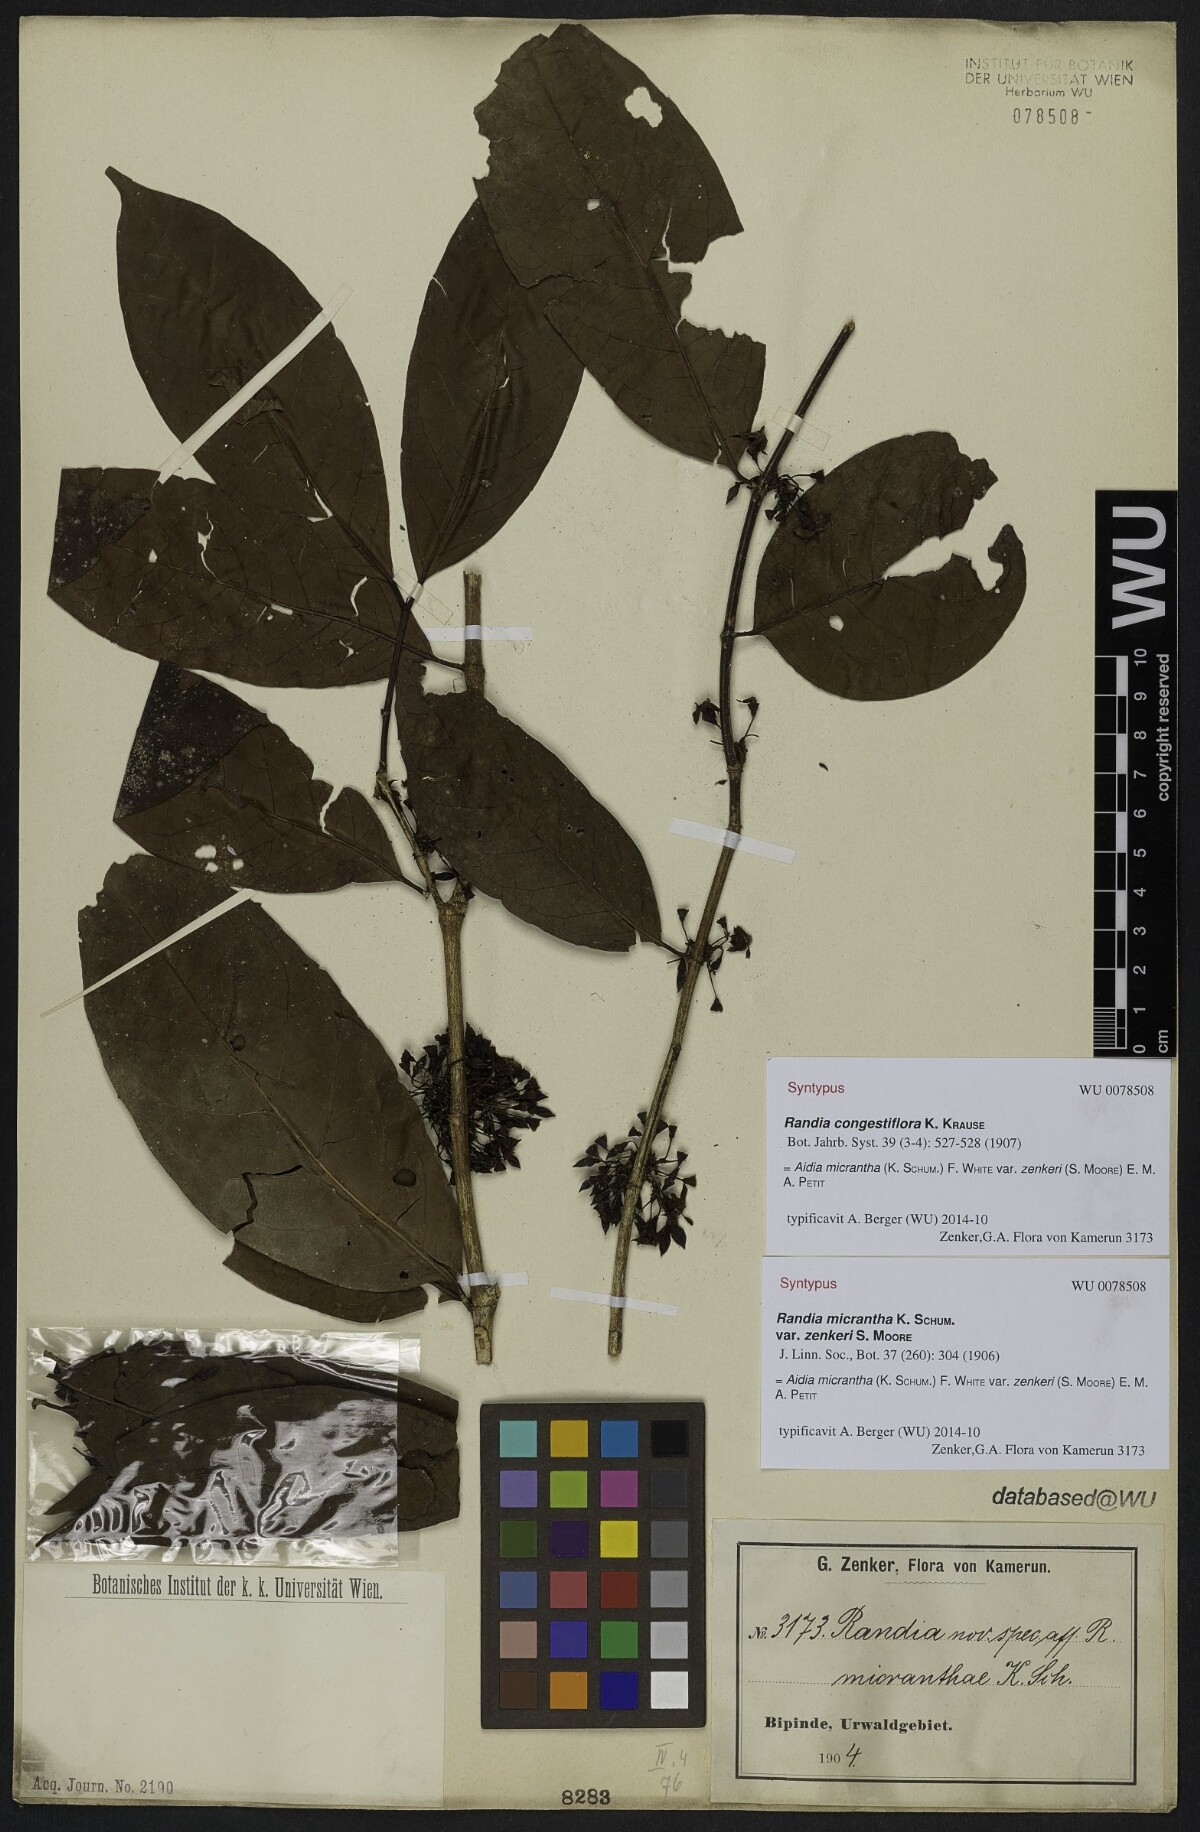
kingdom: Plantae
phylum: Tracheophyta
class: Magnoliopsida
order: Gentianales
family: Rubiaceae
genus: Aidia
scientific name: Aidia micrantha
